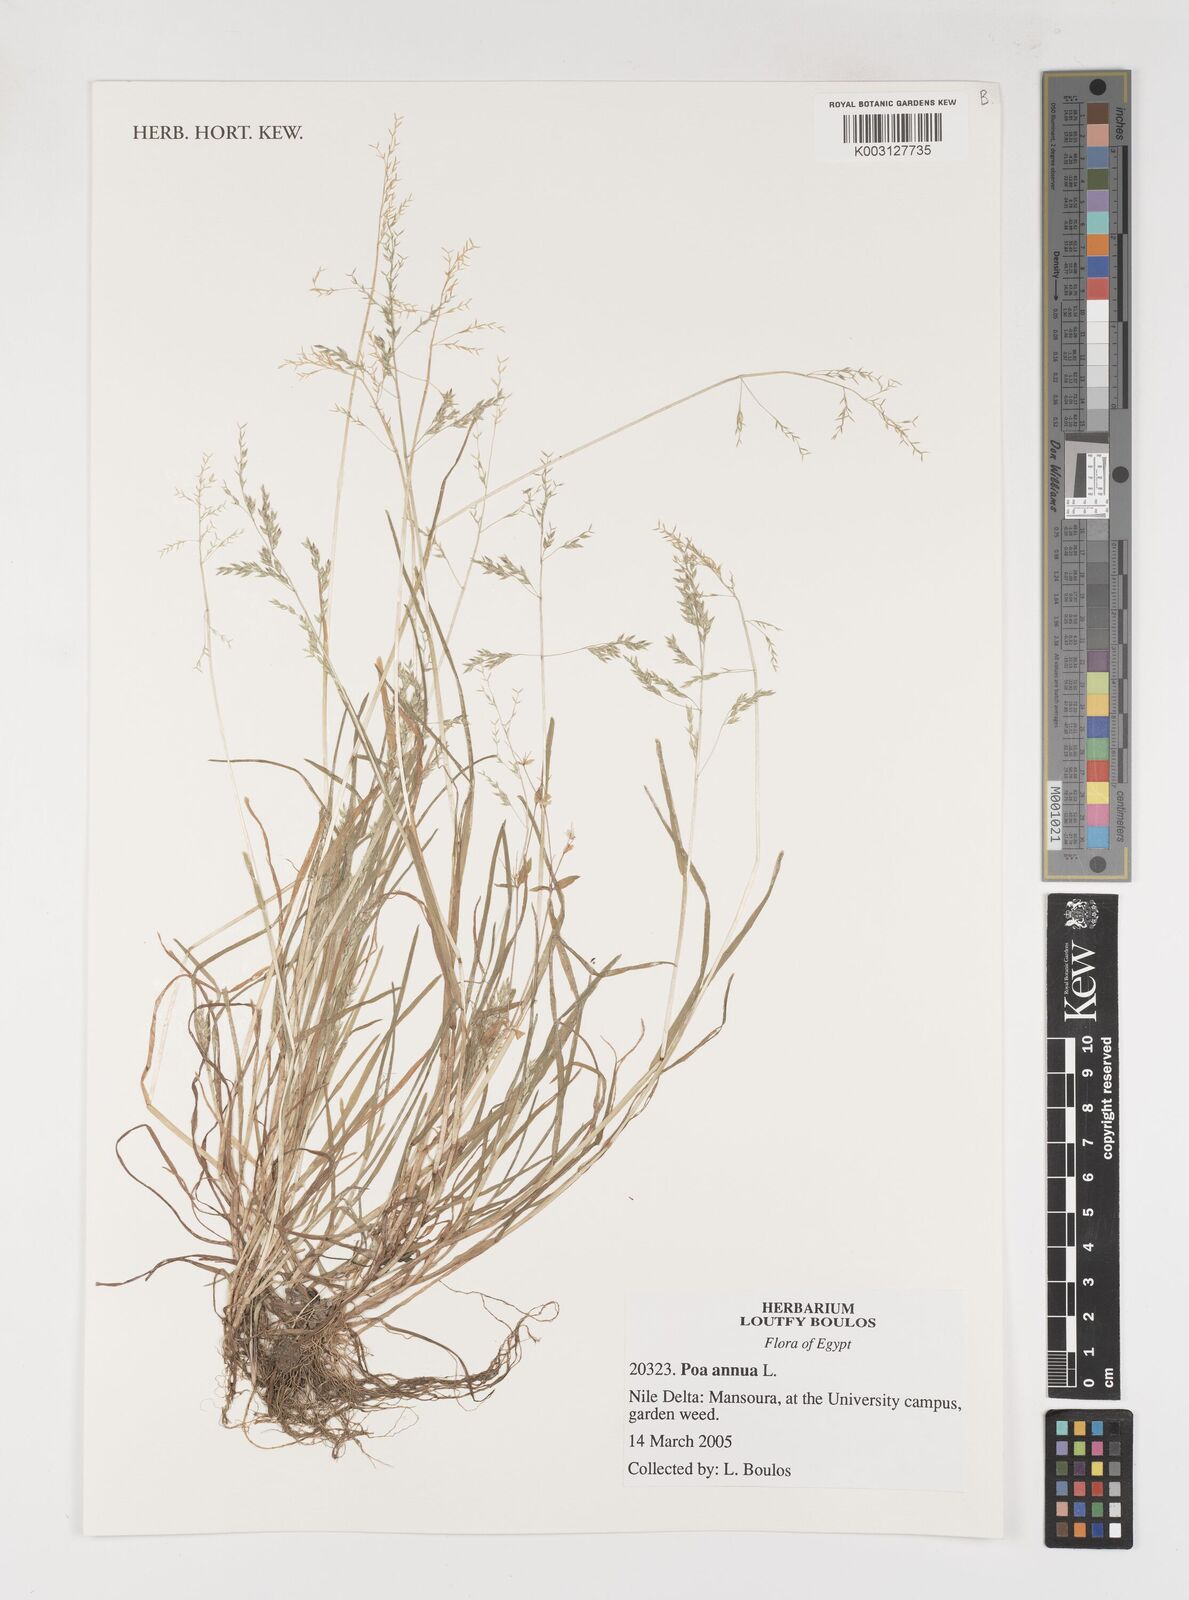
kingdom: Plantae
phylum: Tracheophyta
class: Liliopsida
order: Poales
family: Poaceae
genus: Poa
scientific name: Poa annua
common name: Annual bluegrass
